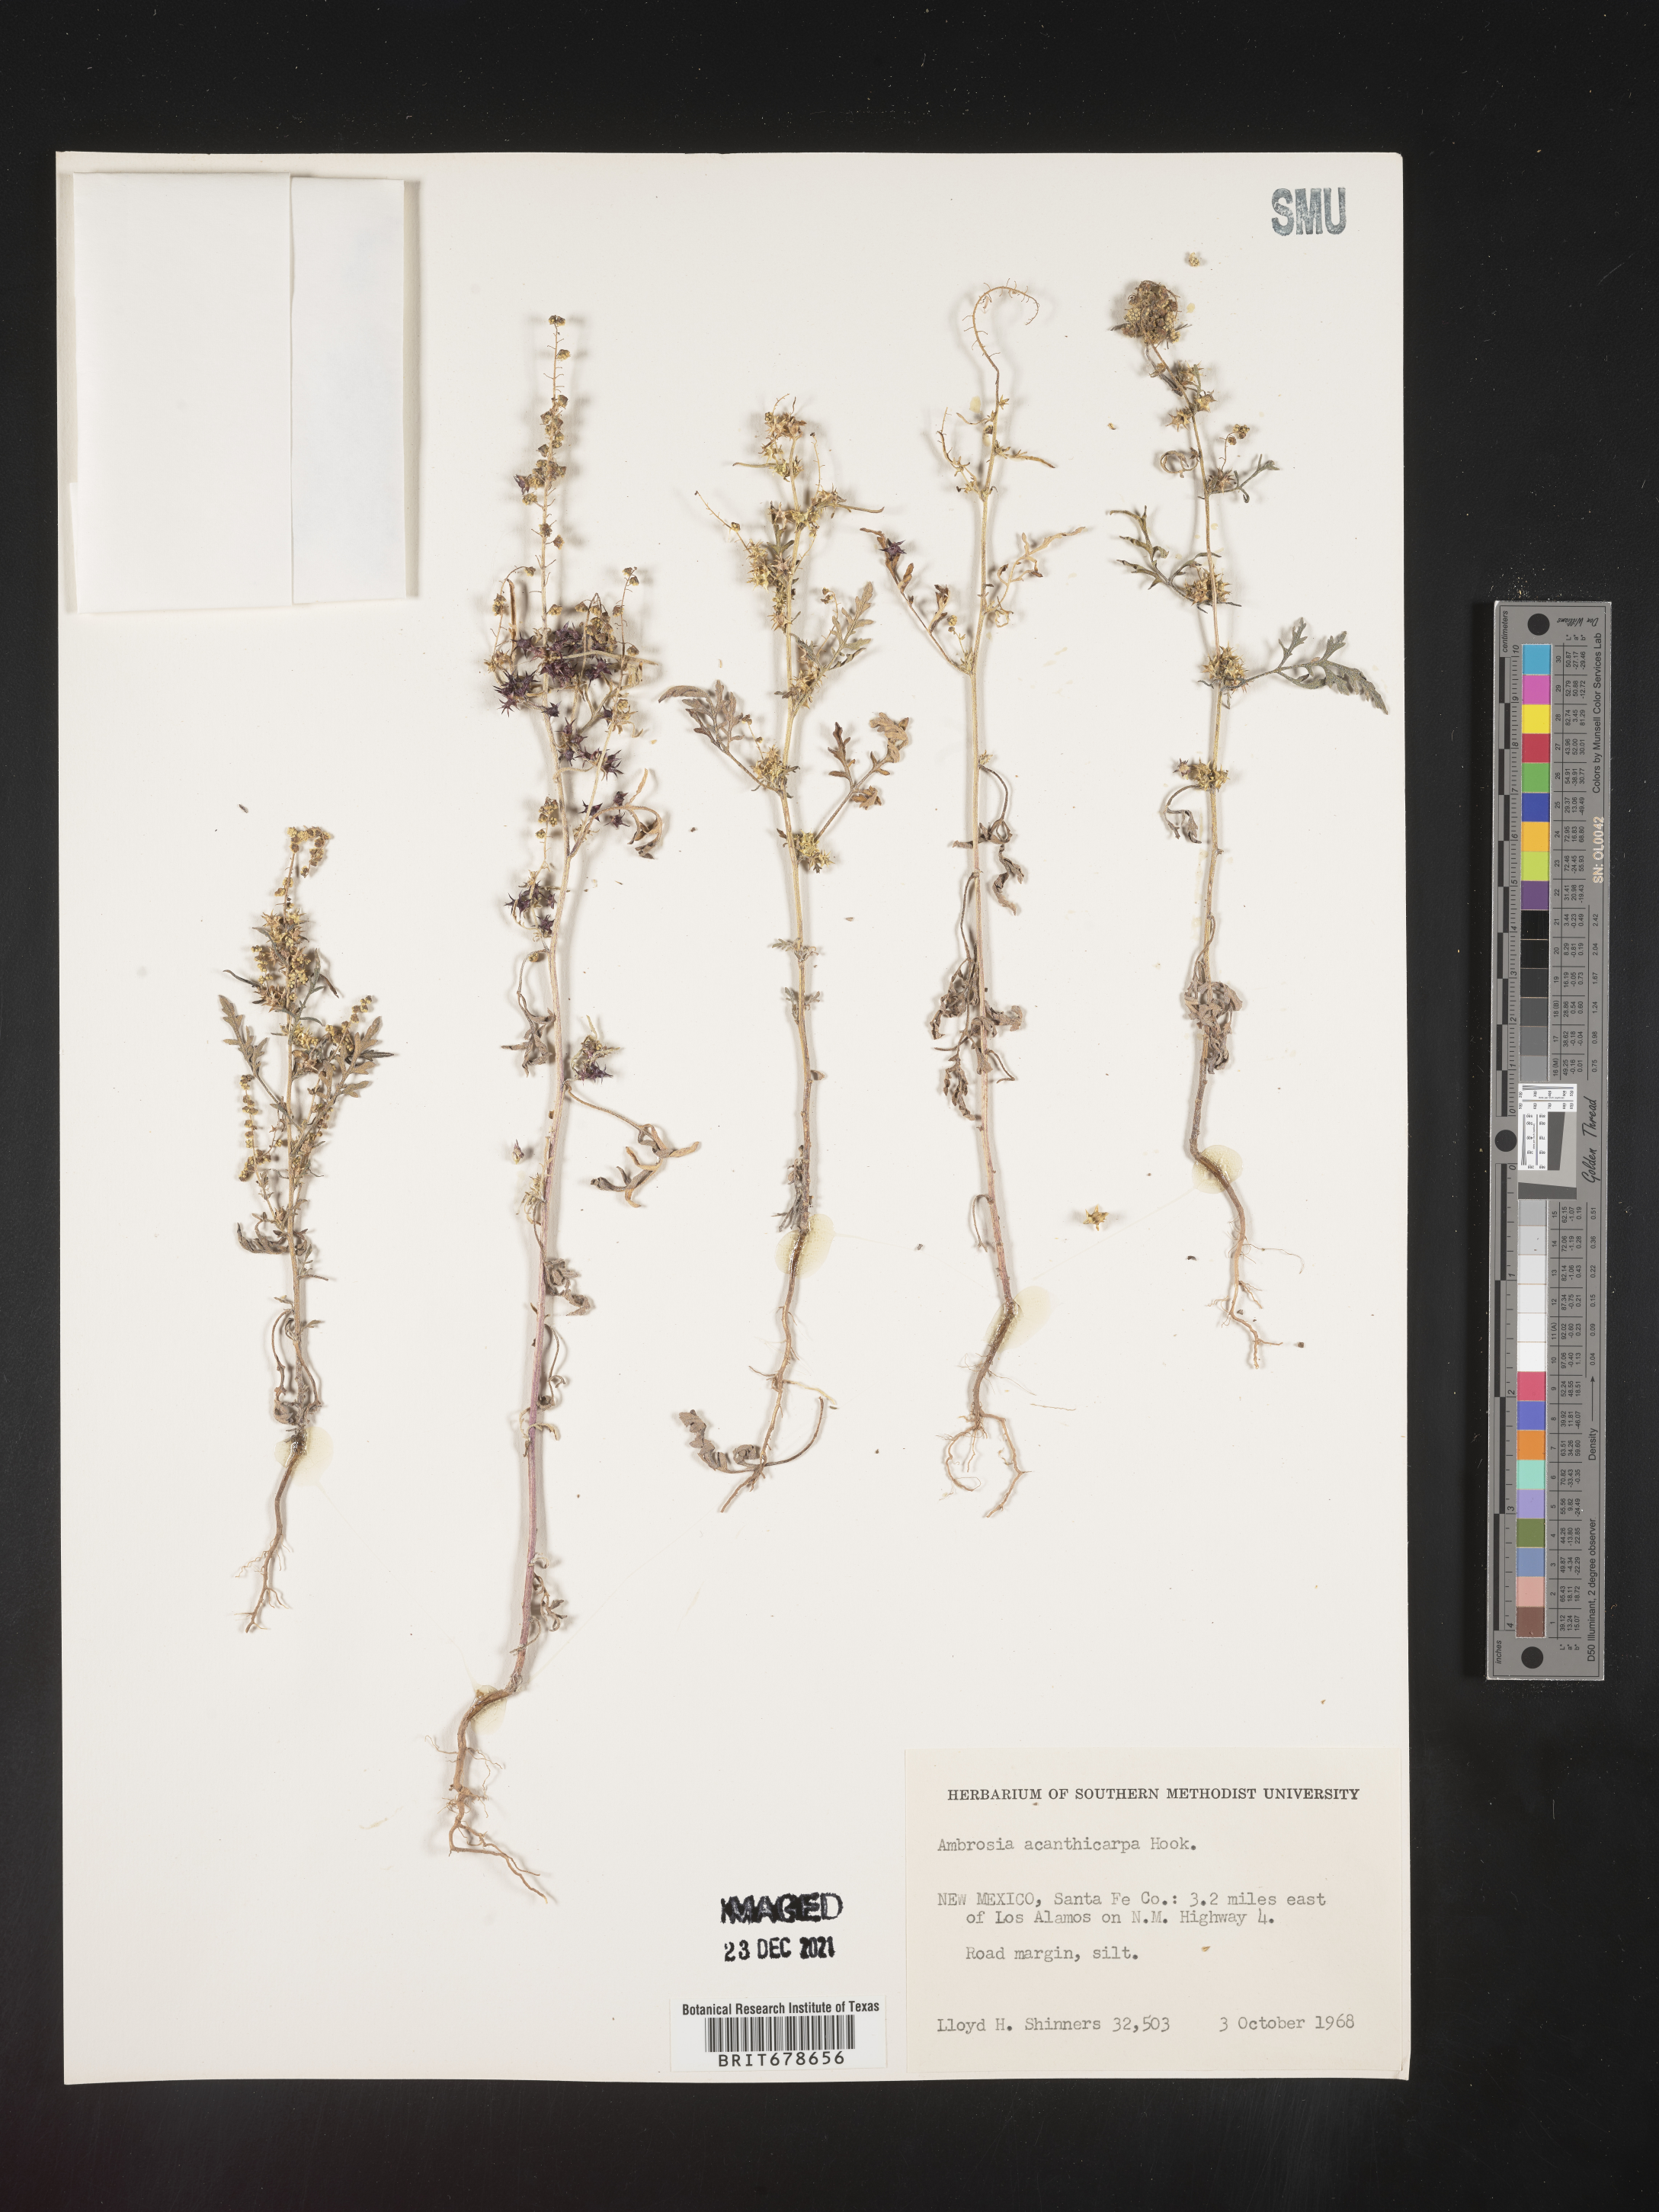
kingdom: Plantae
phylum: Tracheophyta
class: Magnoliopsida
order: Asterales
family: Asteraceae
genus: Ambrosia
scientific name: Ambrosia acanthicarpa
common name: Hooker's bur ragweed
